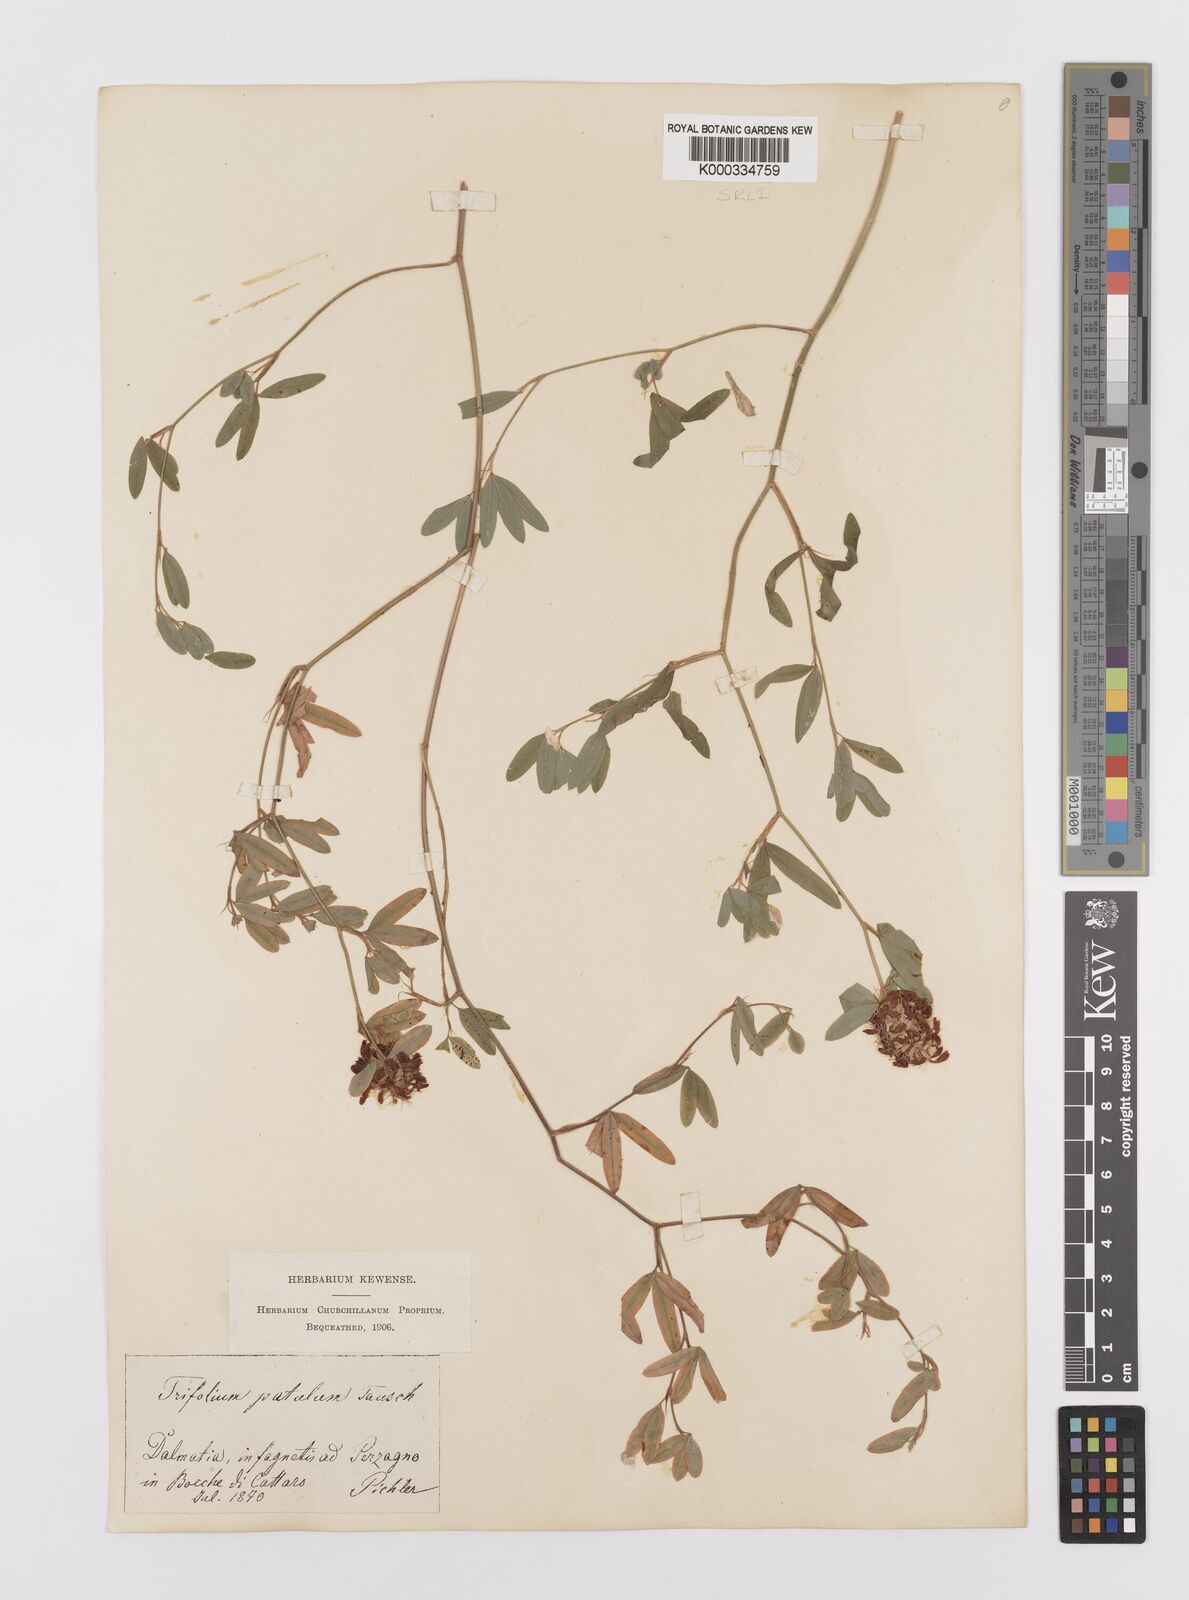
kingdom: Plantae
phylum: Tracheophyta
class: Magnoliopsida
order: Fabales
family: Fabaceae
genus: Trifolium
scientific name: Trifolium patulum
